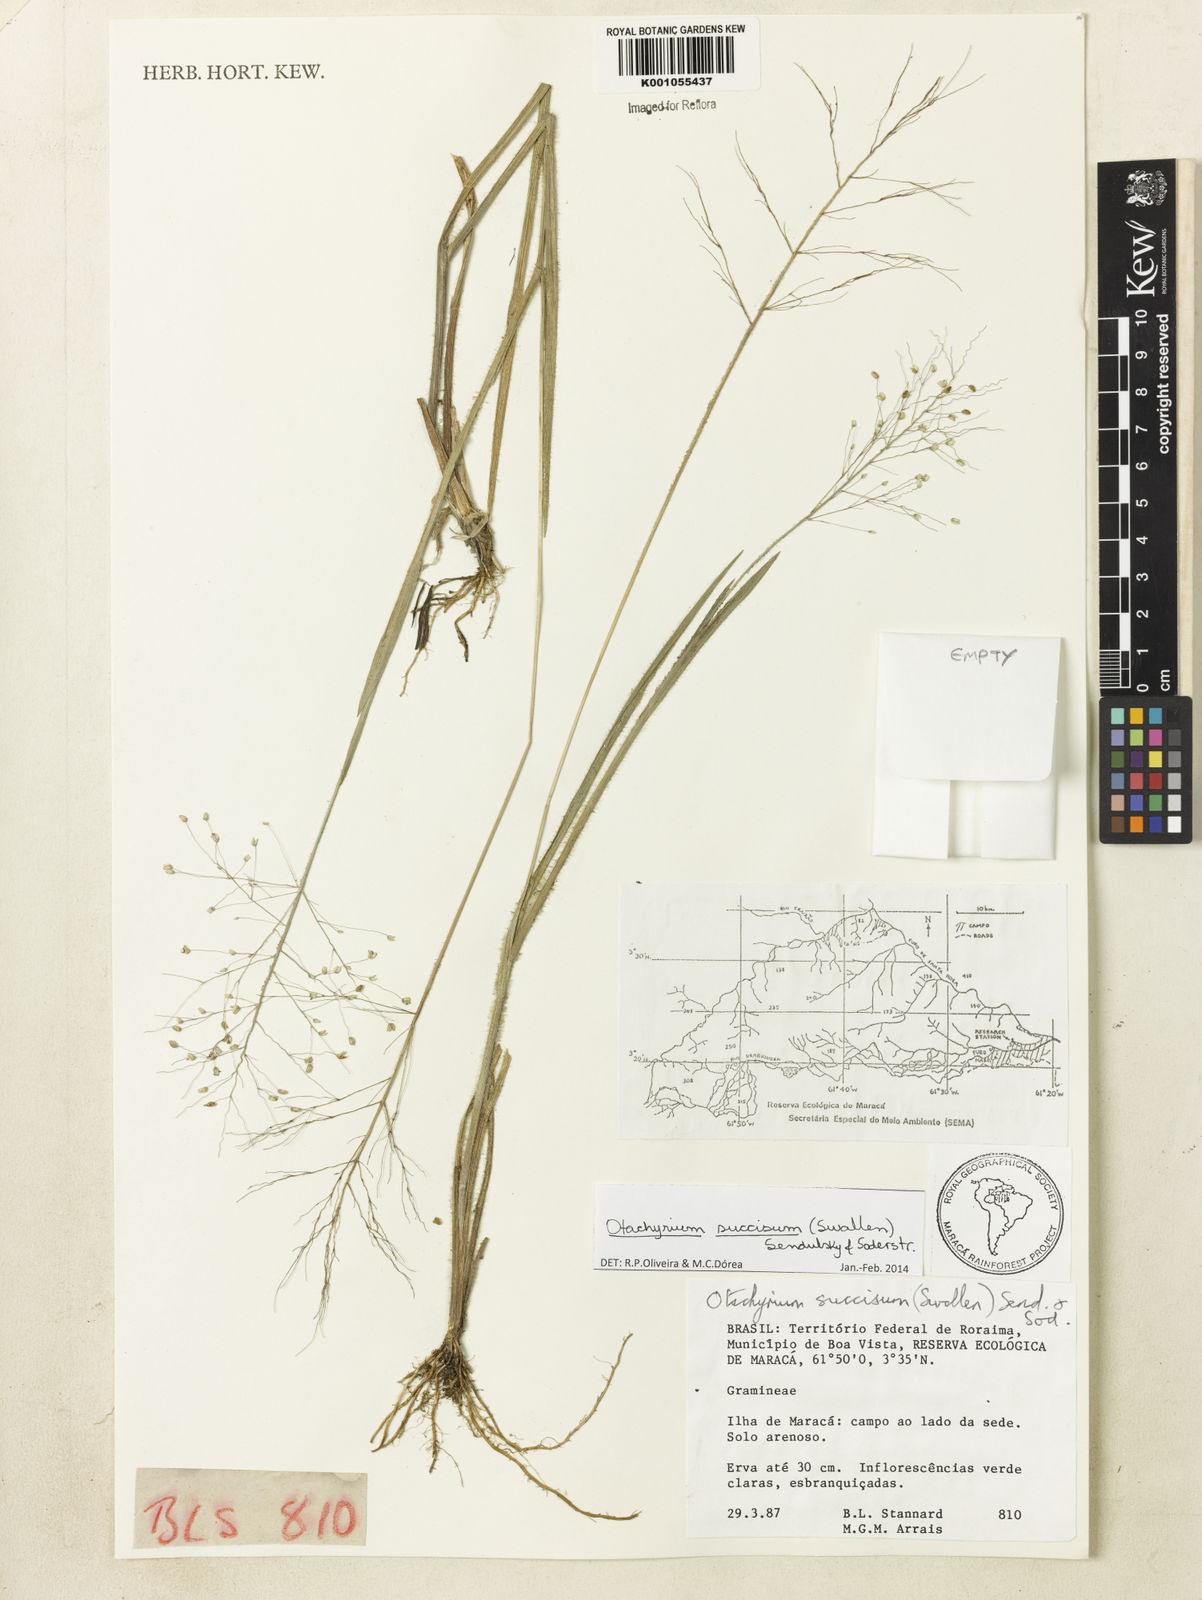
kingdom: Plantae
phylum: Tracheophyta
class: Liliopsida
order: Poales
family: Poaceae
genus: Otachyrium
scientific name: Otachyrium inaequale
